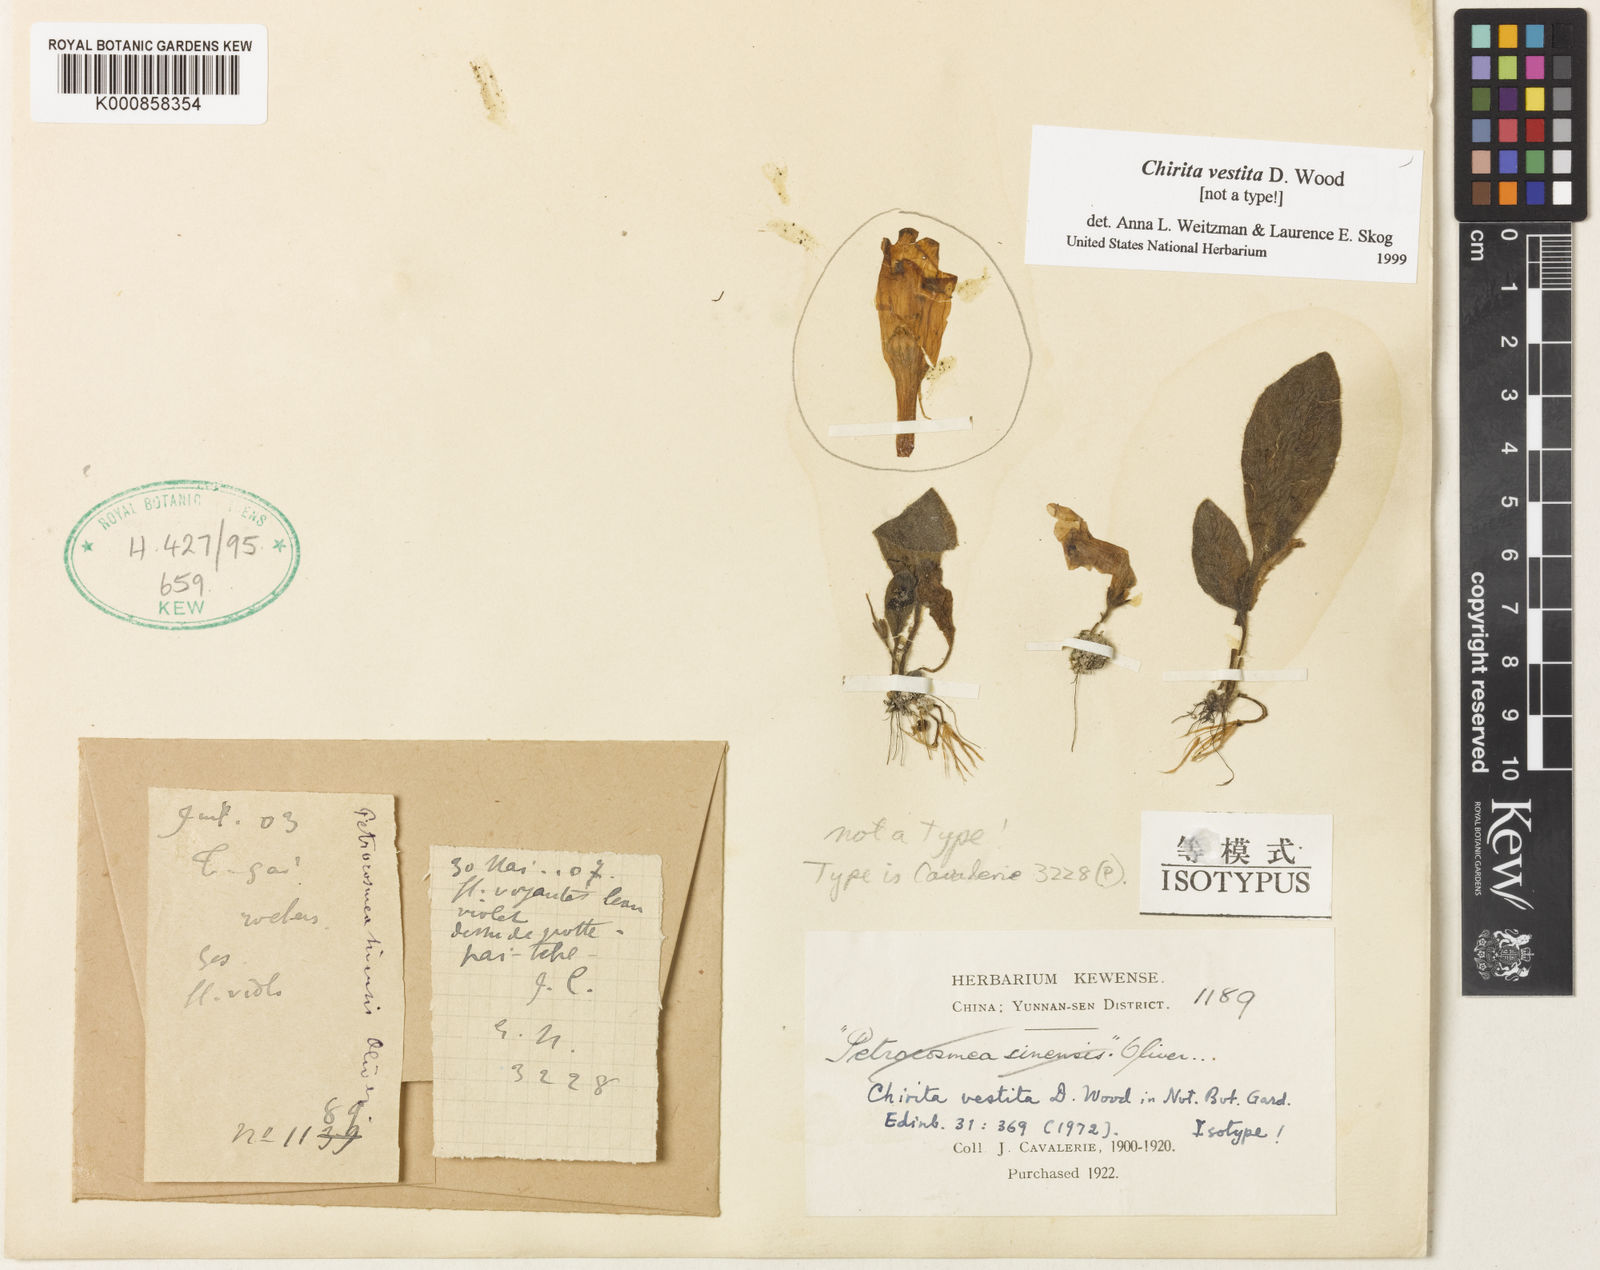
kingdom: Plantae
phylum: Tracheophyta
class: Magnoliopsida
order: Lamiales
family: Gesneriaceae
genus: Primulina
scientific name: Primulina vestita
